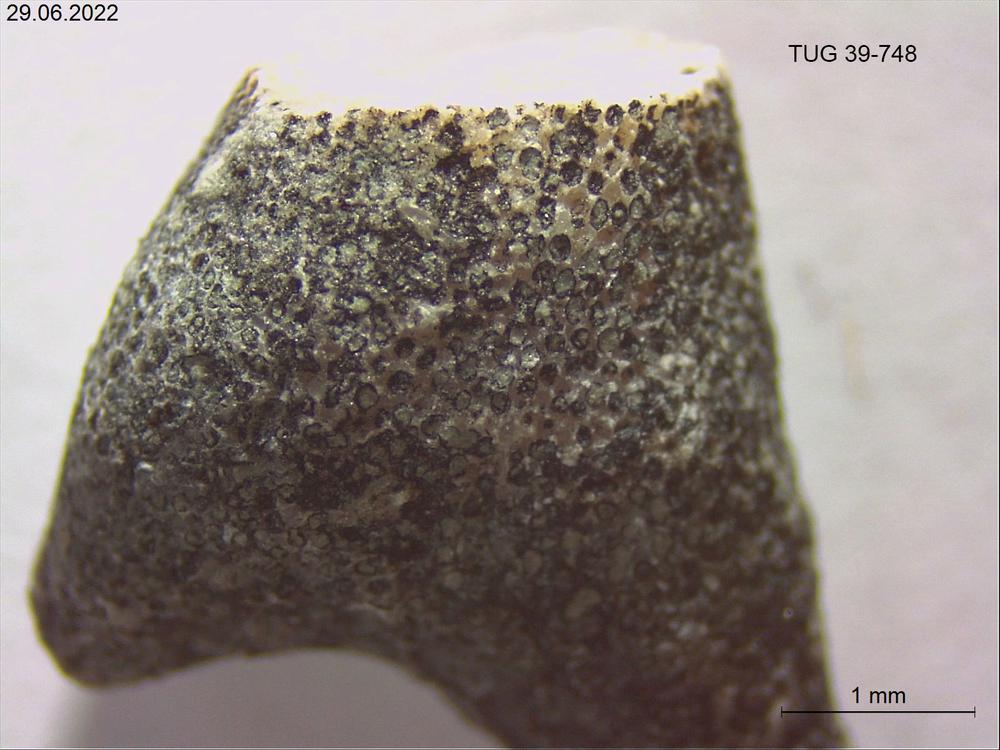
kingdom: Animalia
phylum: Bryozoa
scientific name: Bryozoa
